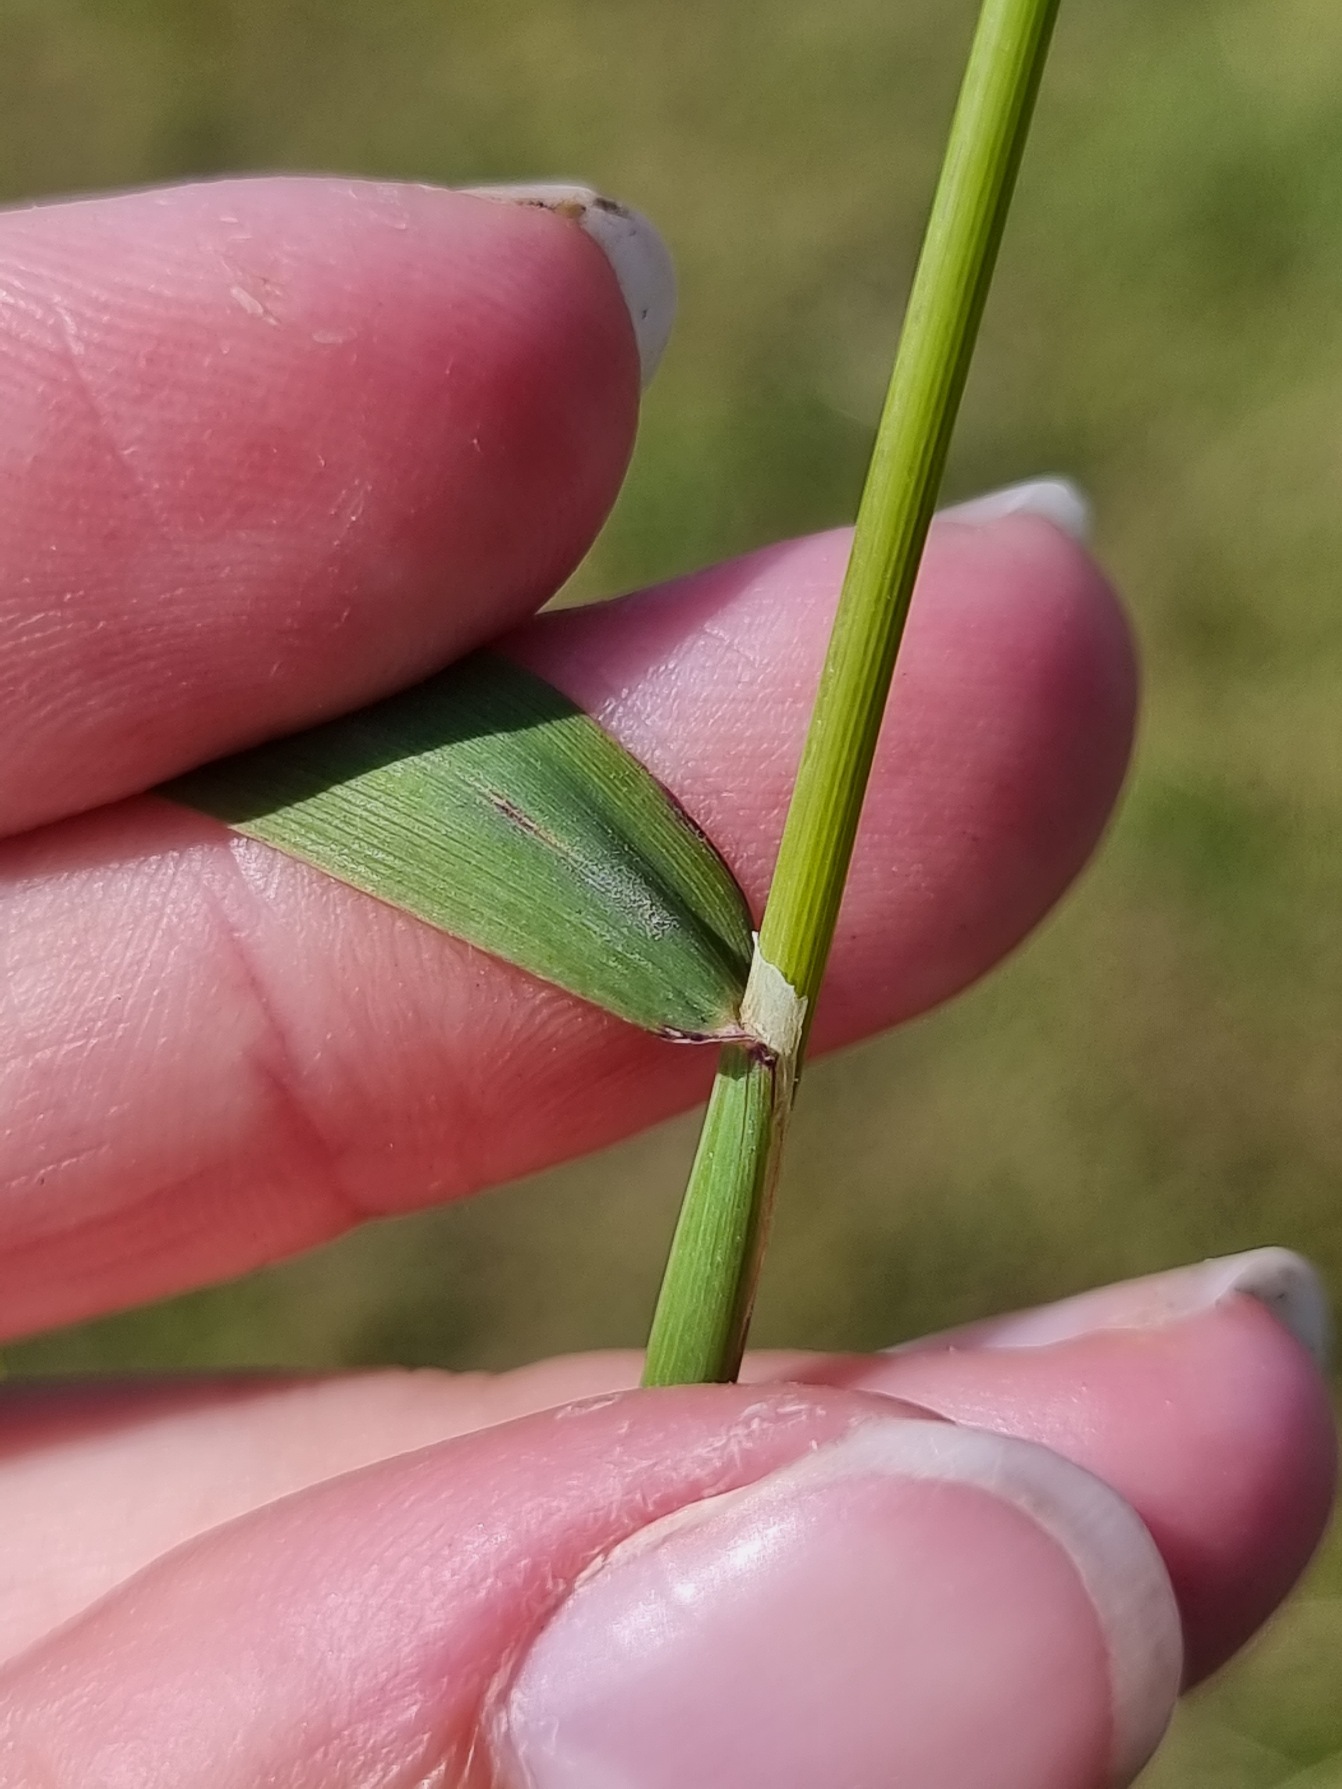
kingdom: Plantae
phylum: Tracheophyta
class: Liliopsida
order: Poales
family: Poaceae
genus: Phleum
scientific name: Phleum pratense
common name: Eng-rottehale
